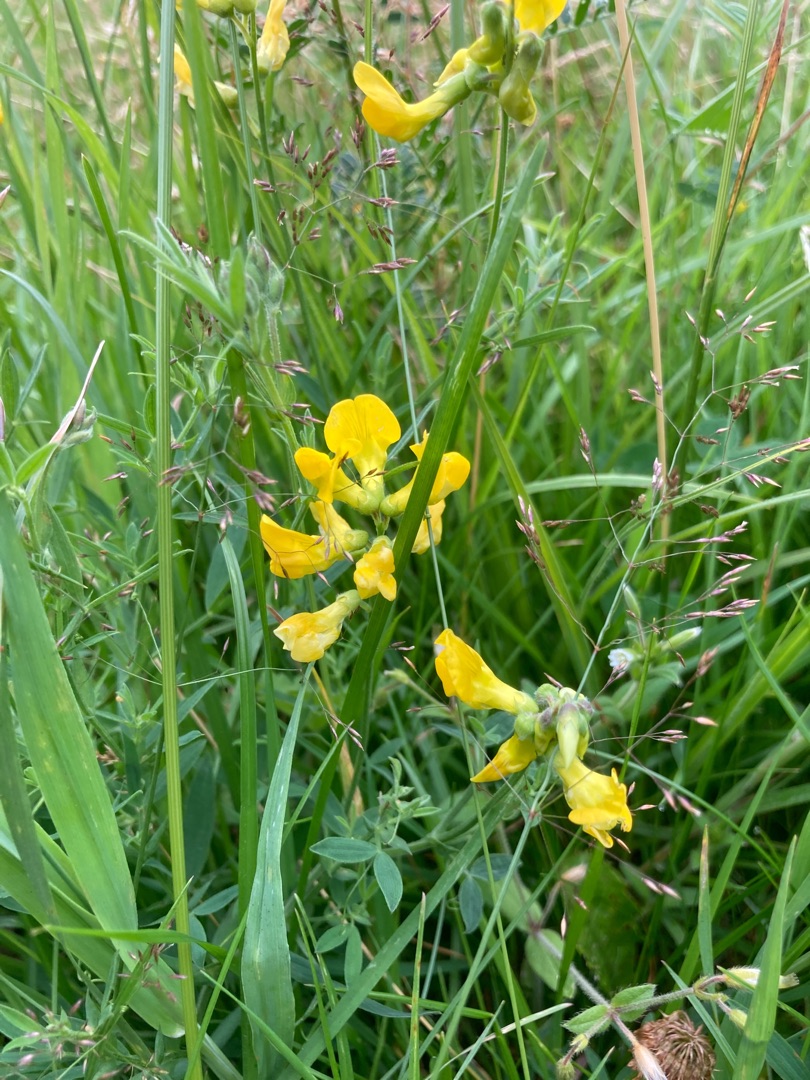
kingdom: Plantae
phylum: Tracheophyta
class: Magnoliopsida
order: Fabales
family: Fabaceae
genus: Lathyrus
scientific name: Lathyrus pratensis
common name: Gul fladbælg
